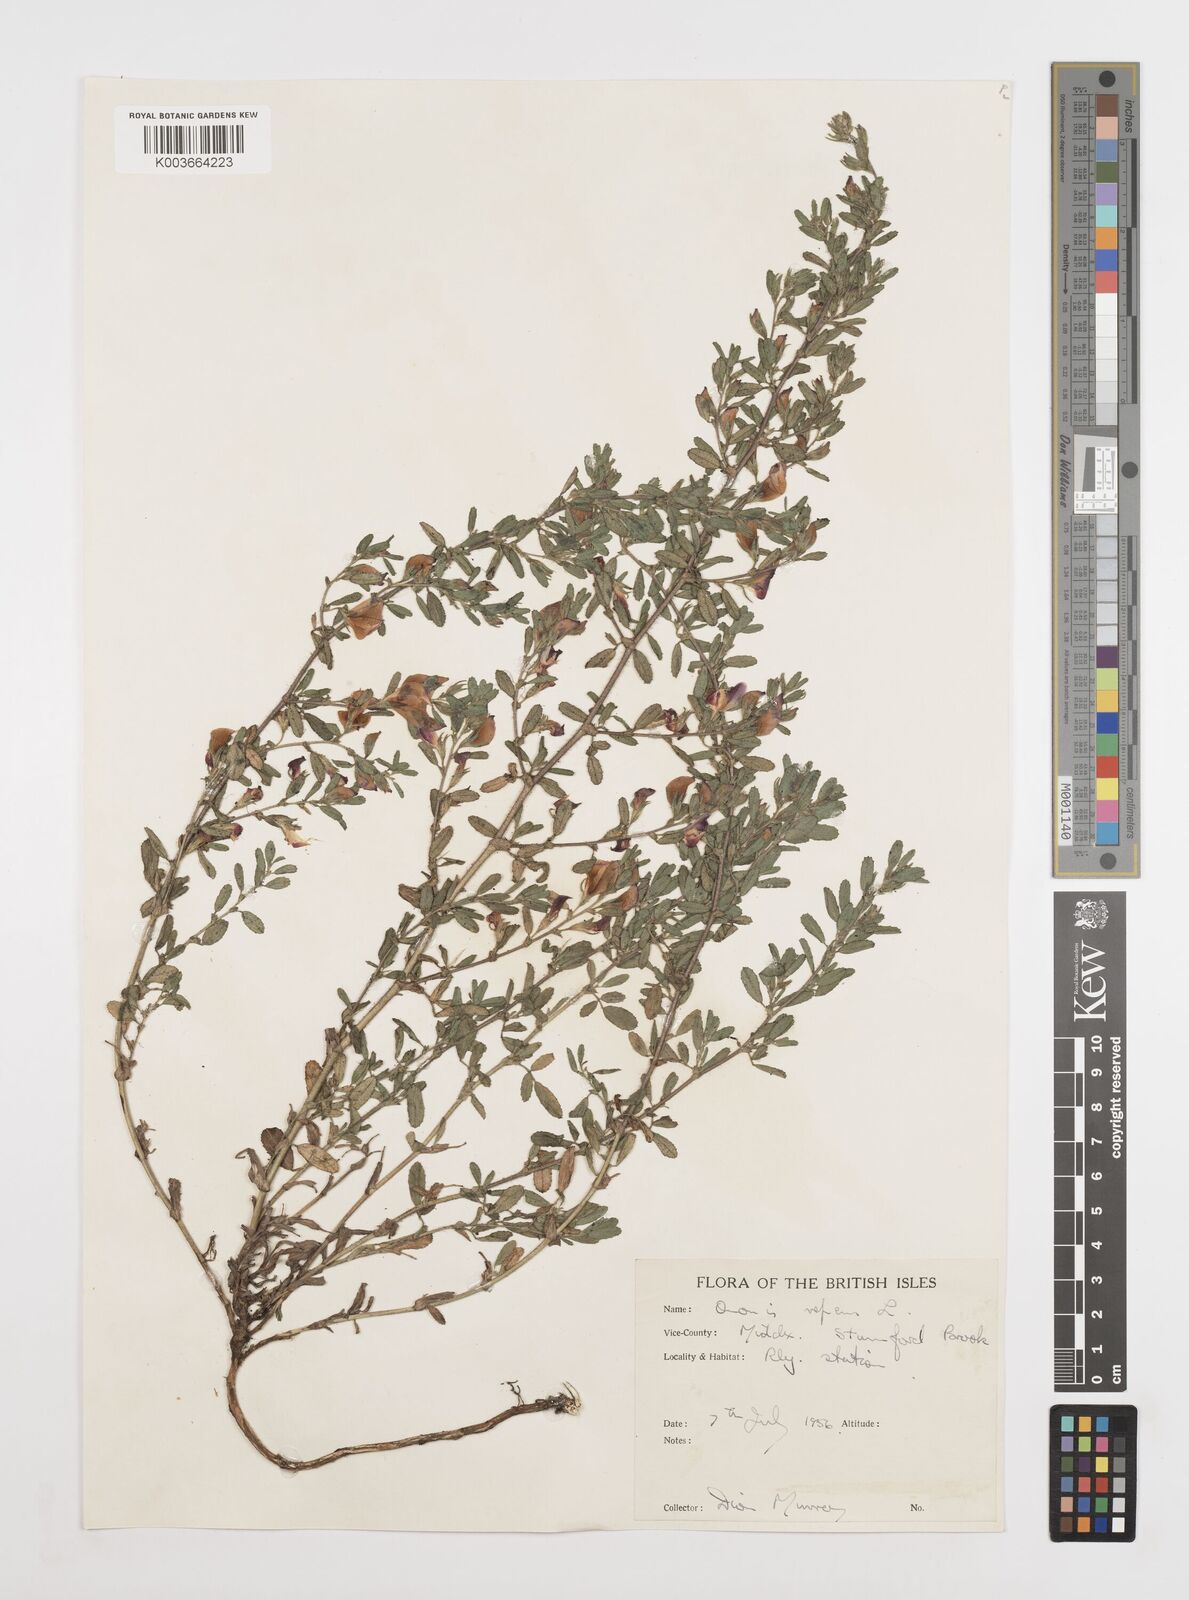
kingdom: Plantae
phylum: Tracheophyta
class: Magnoliopsida
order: Fabales
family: Fabaceae
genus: Ononis
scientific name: Ononis spinosa
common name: Spiny restharrow
